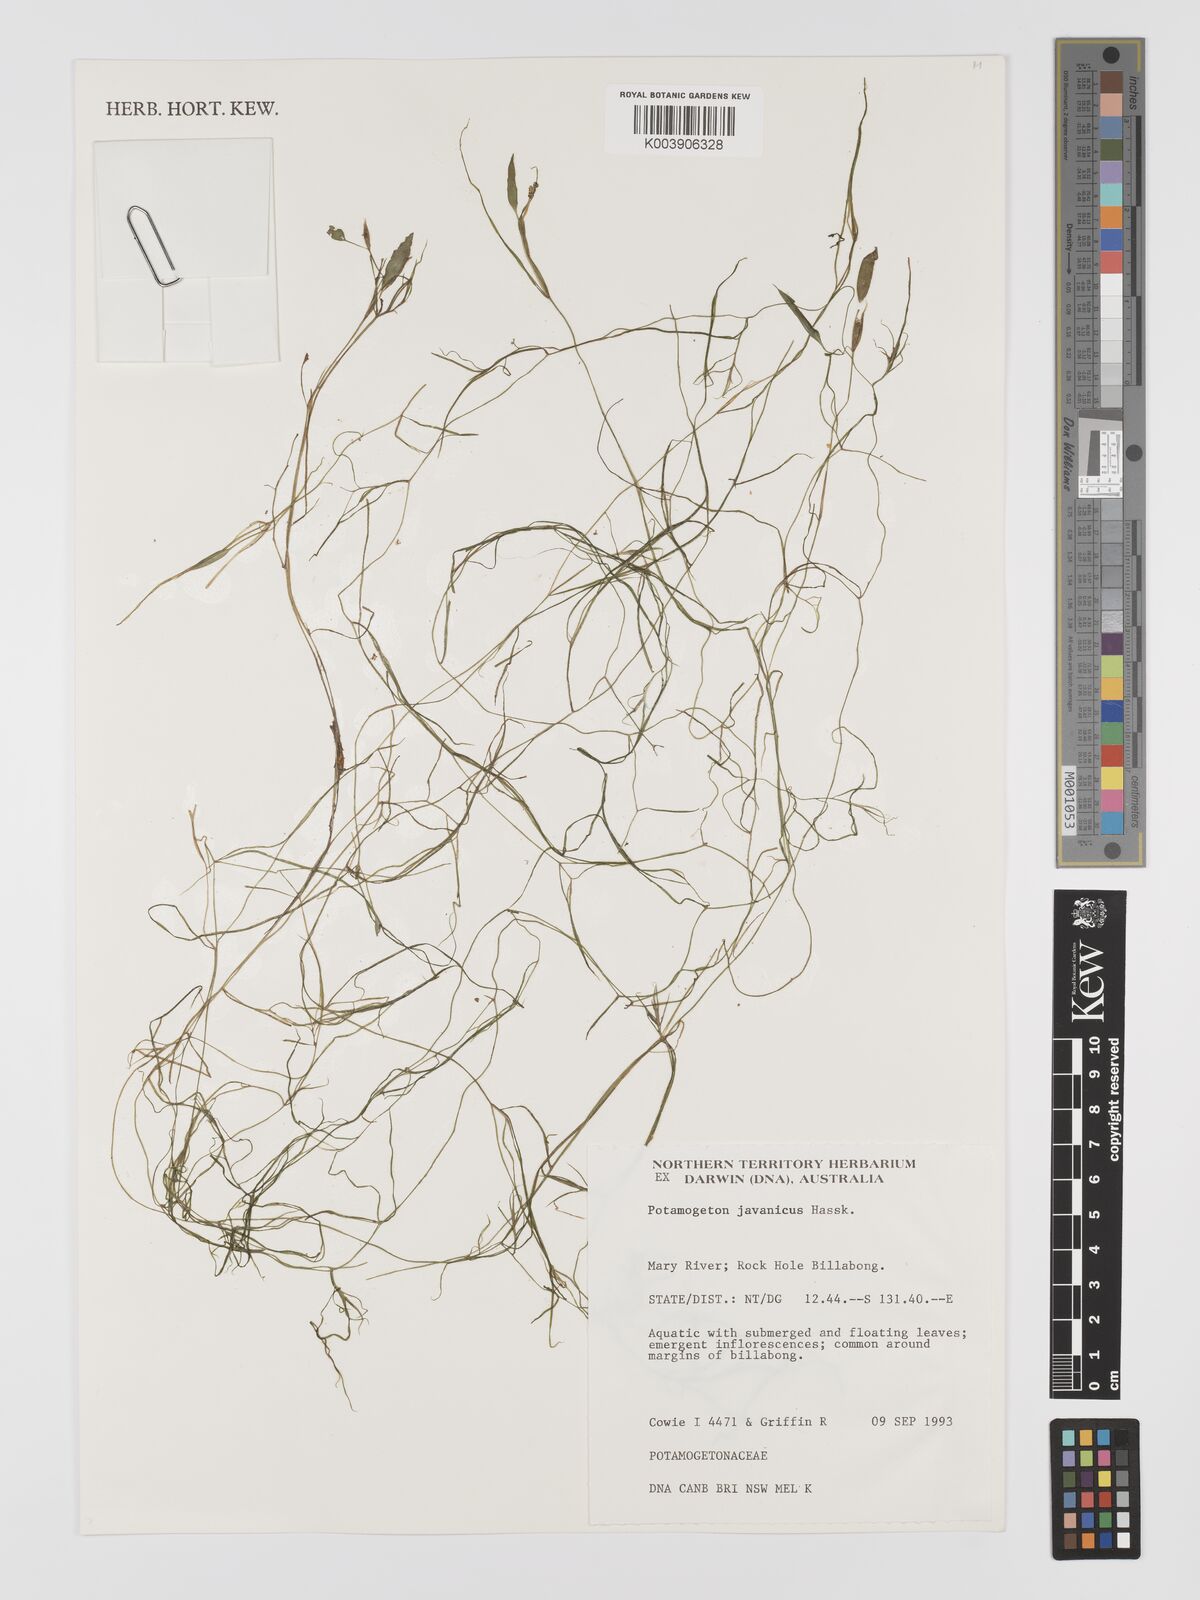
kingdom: Plantae
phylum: Tracheophyta
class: Liliopsida
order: Alismatales
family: Potamogetonaceae
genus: Potamogeton
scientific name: Potamogeton ochreatus
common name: Blunt pondweed
